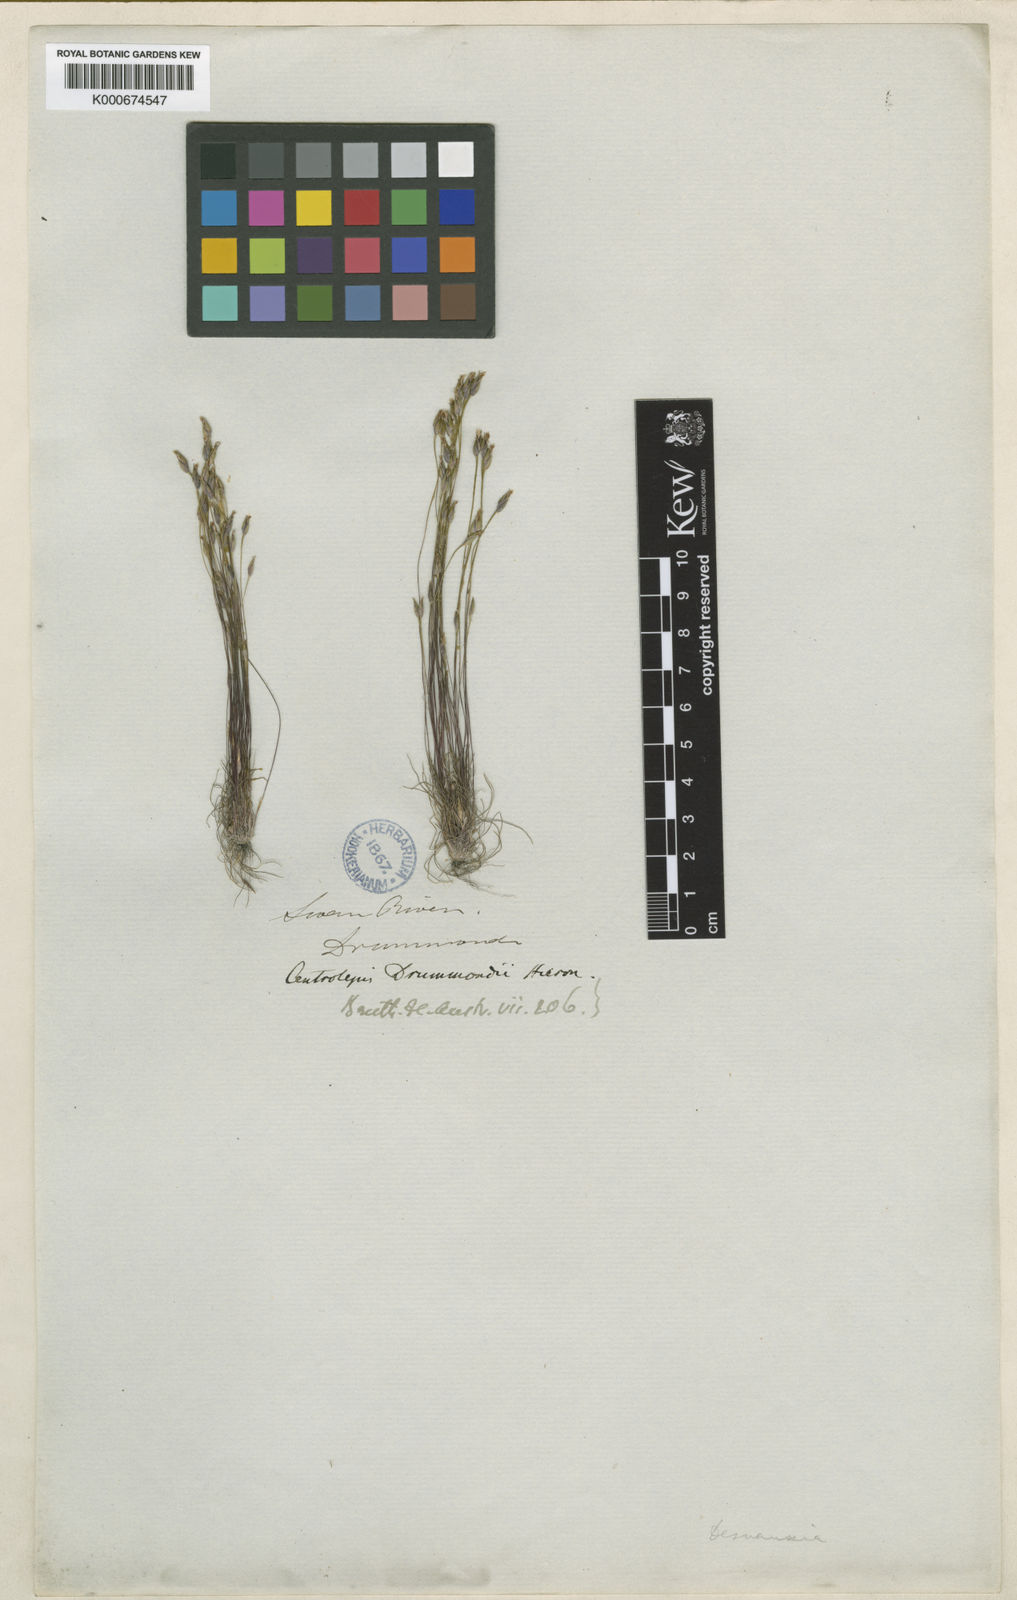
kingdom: Plantae
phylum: Tracheophyta
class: Liliopsida
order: Poales
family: Restionaceae
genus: Centrolepis
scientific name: Centrolepis
